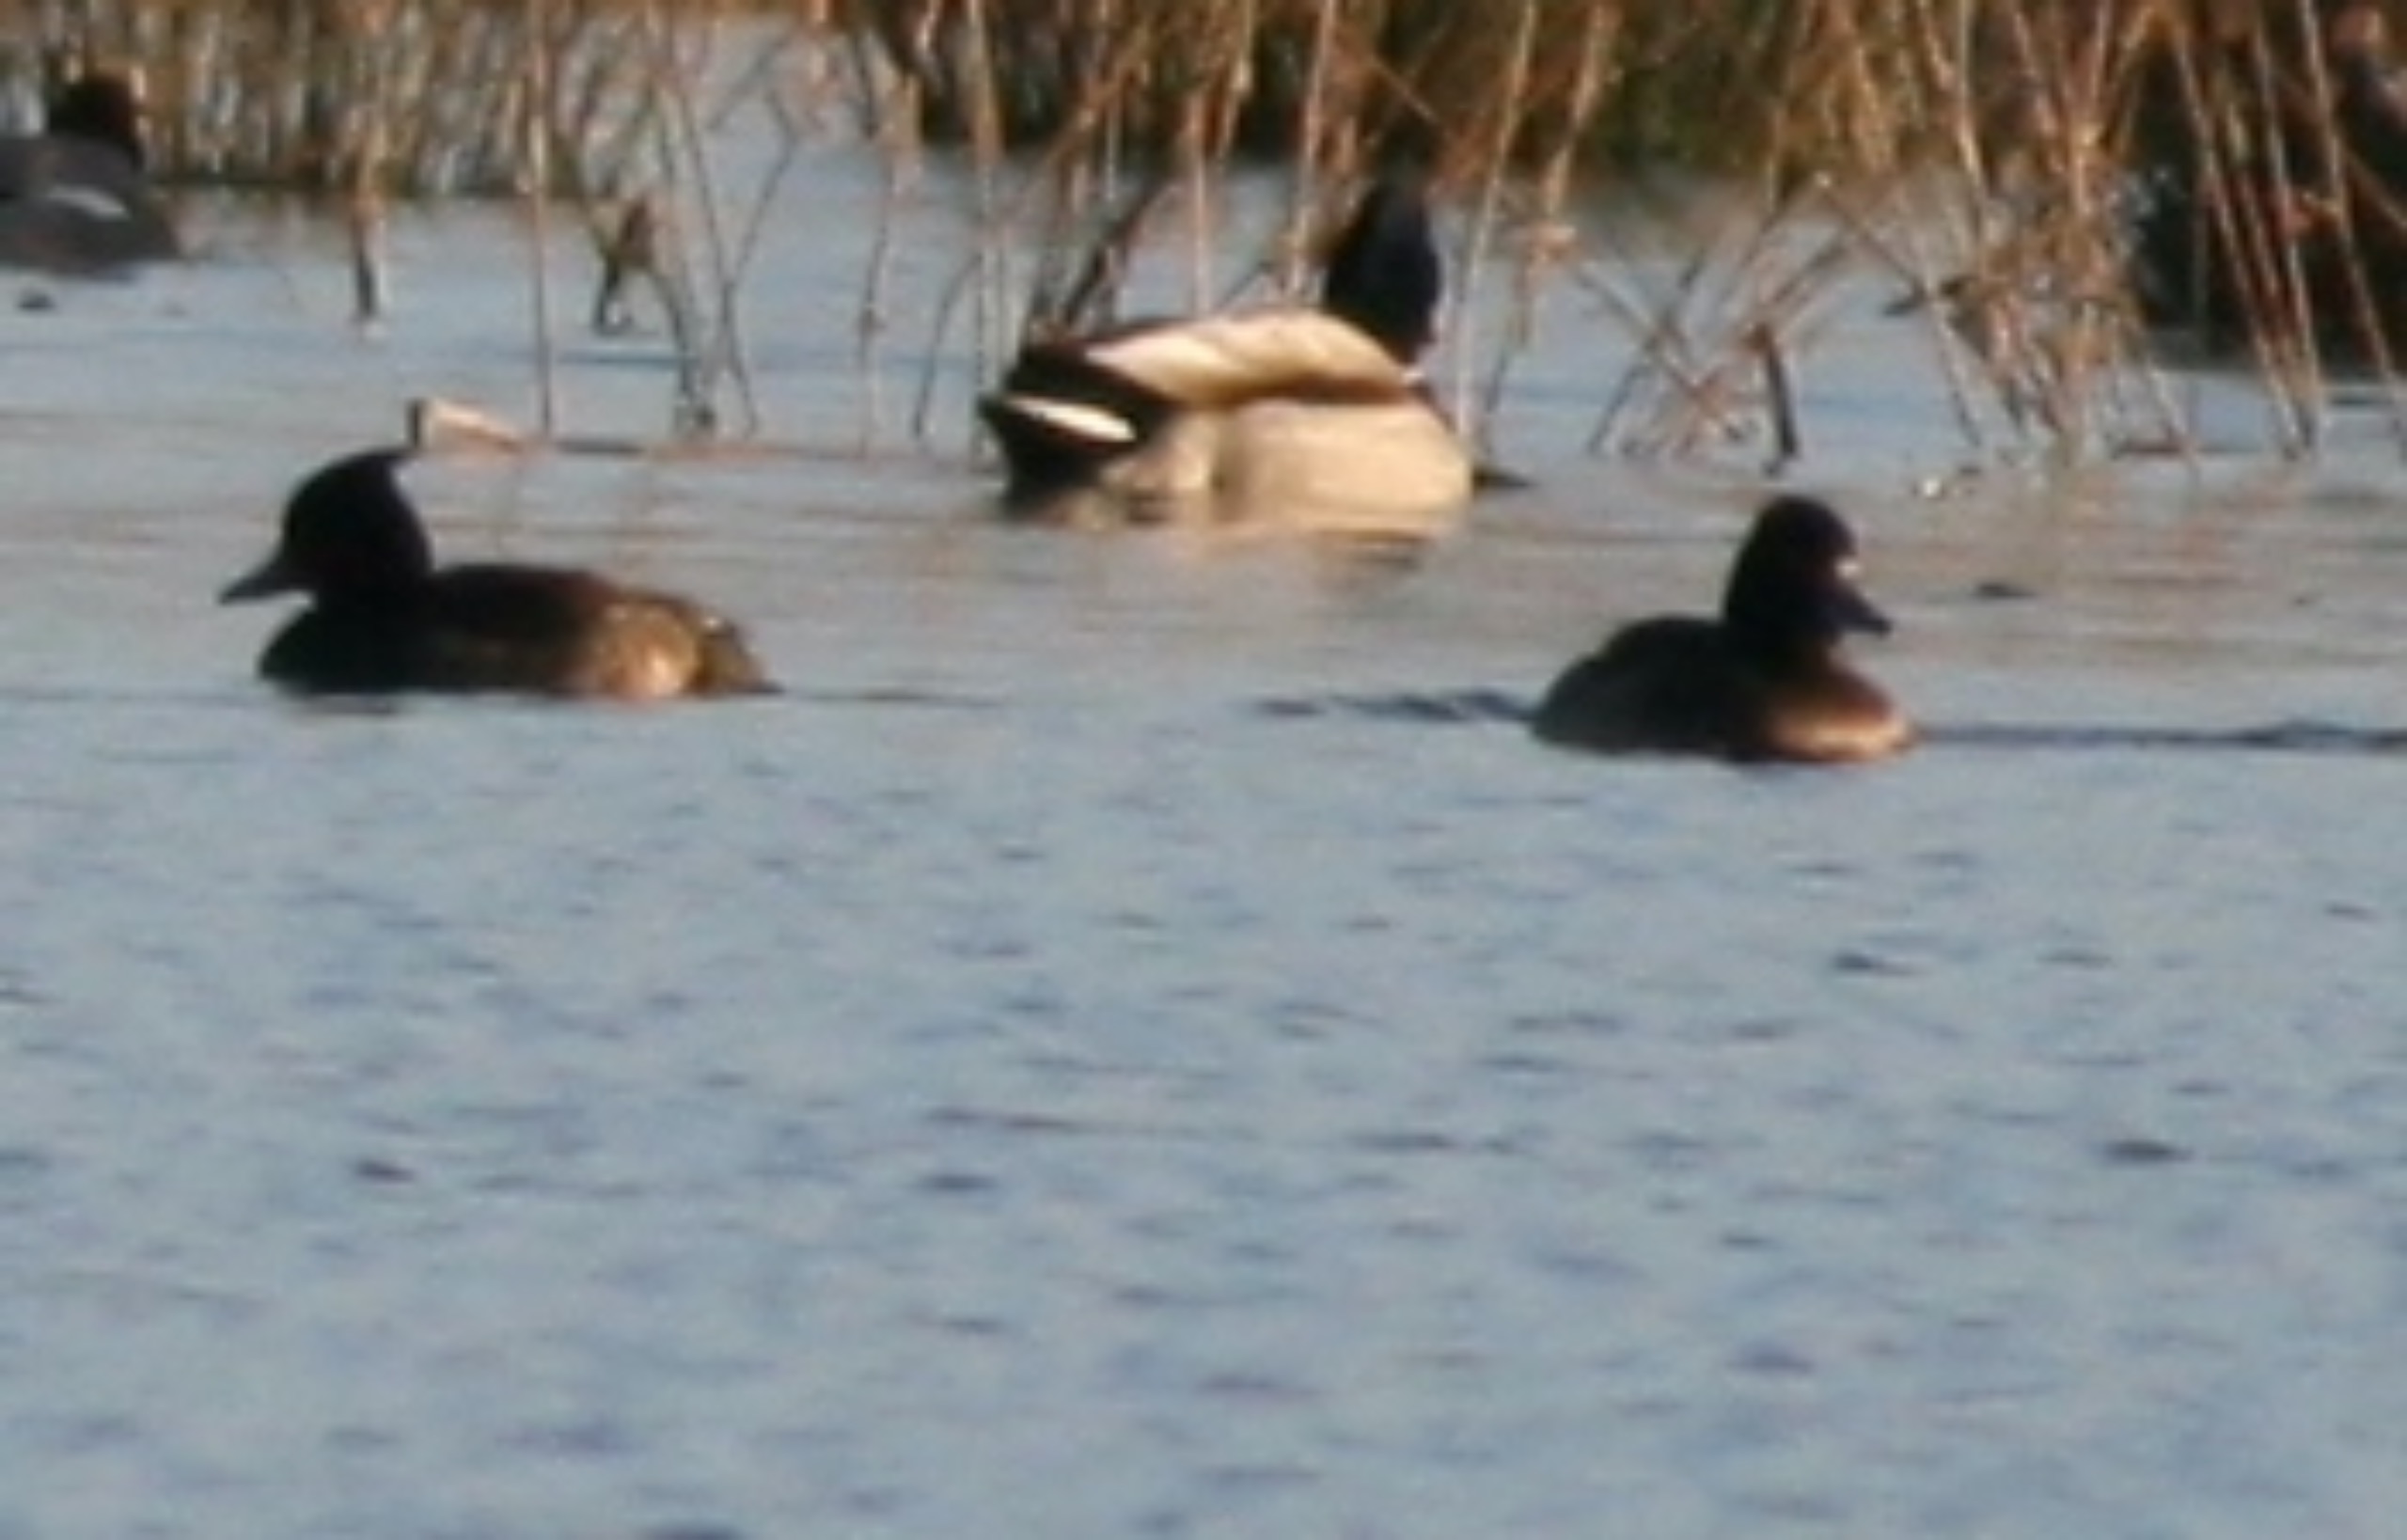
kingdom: Animalia
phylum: Chordata
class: Aves
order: Anseriformes
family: Anatidae
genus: Aythya
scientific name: Aythya fuligula
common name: Troldand
